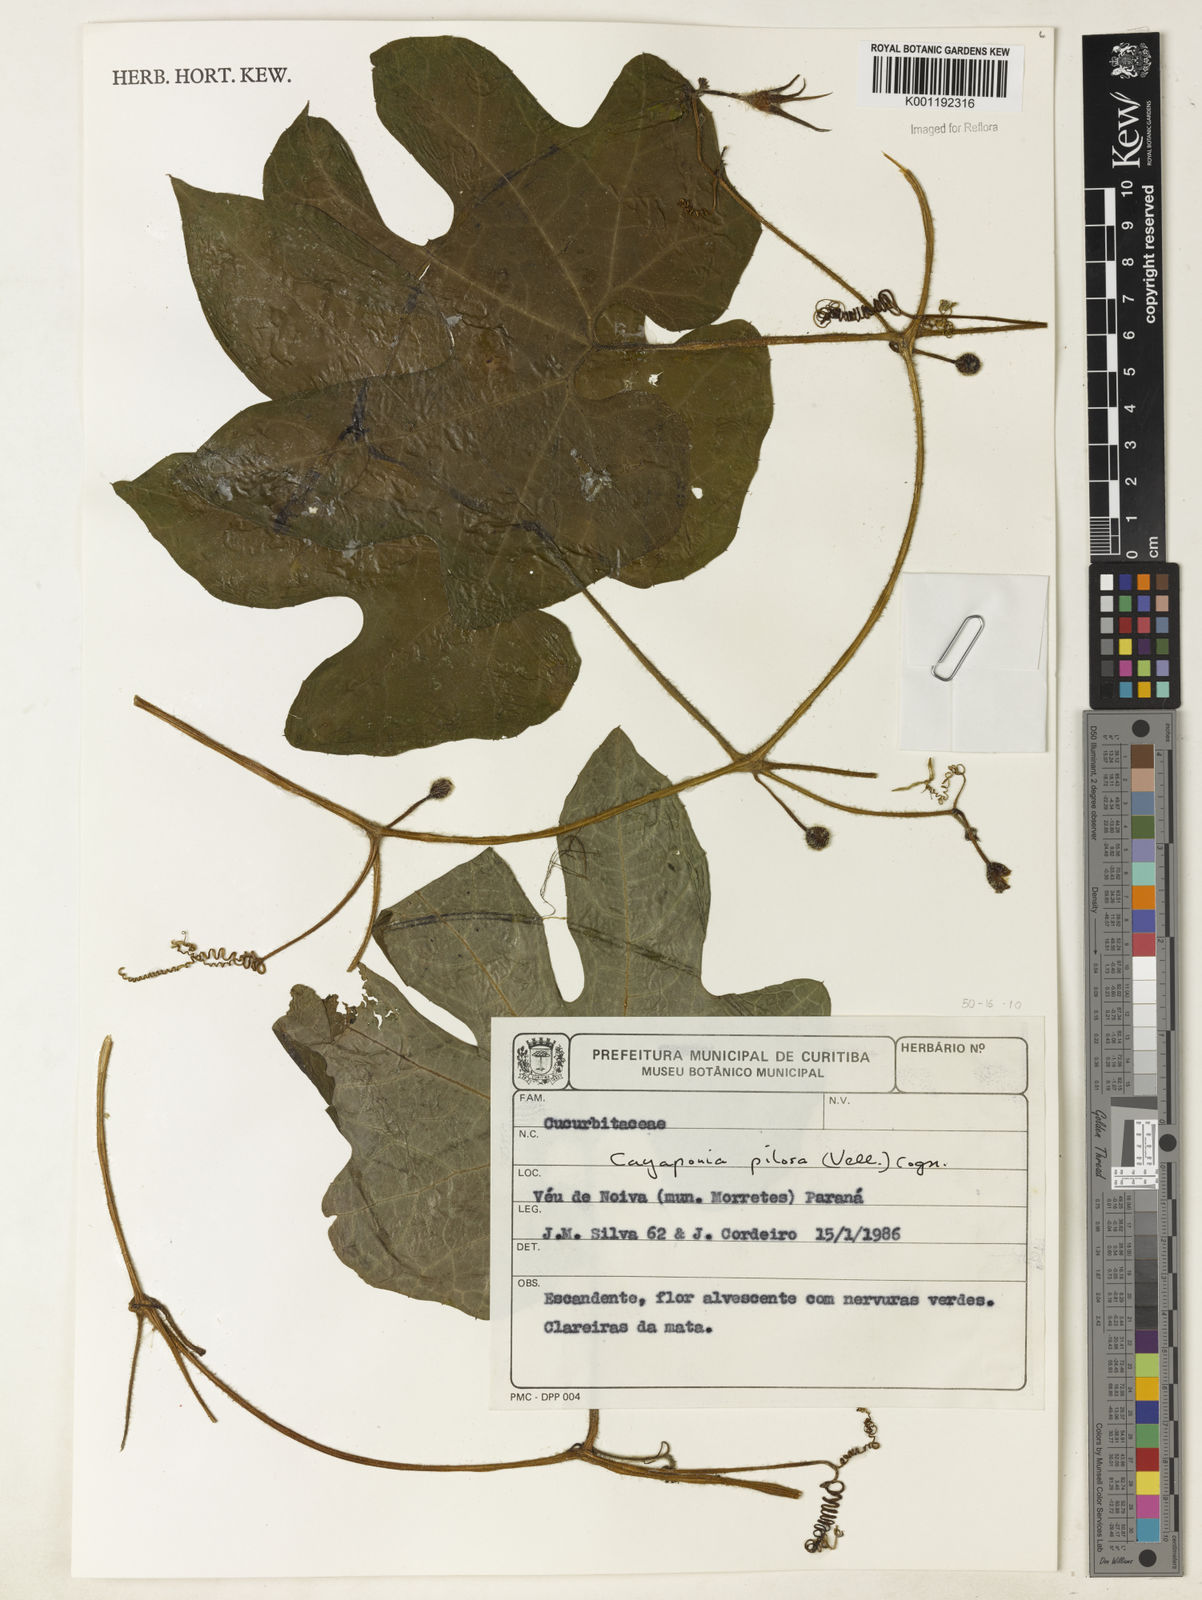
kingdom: Plantae
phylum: Tracheophyta
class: Magnoliopsida
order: Cucurbitales
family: Cucurbitaceae
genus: Cayaponia
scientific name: Cayaponia pilosa
